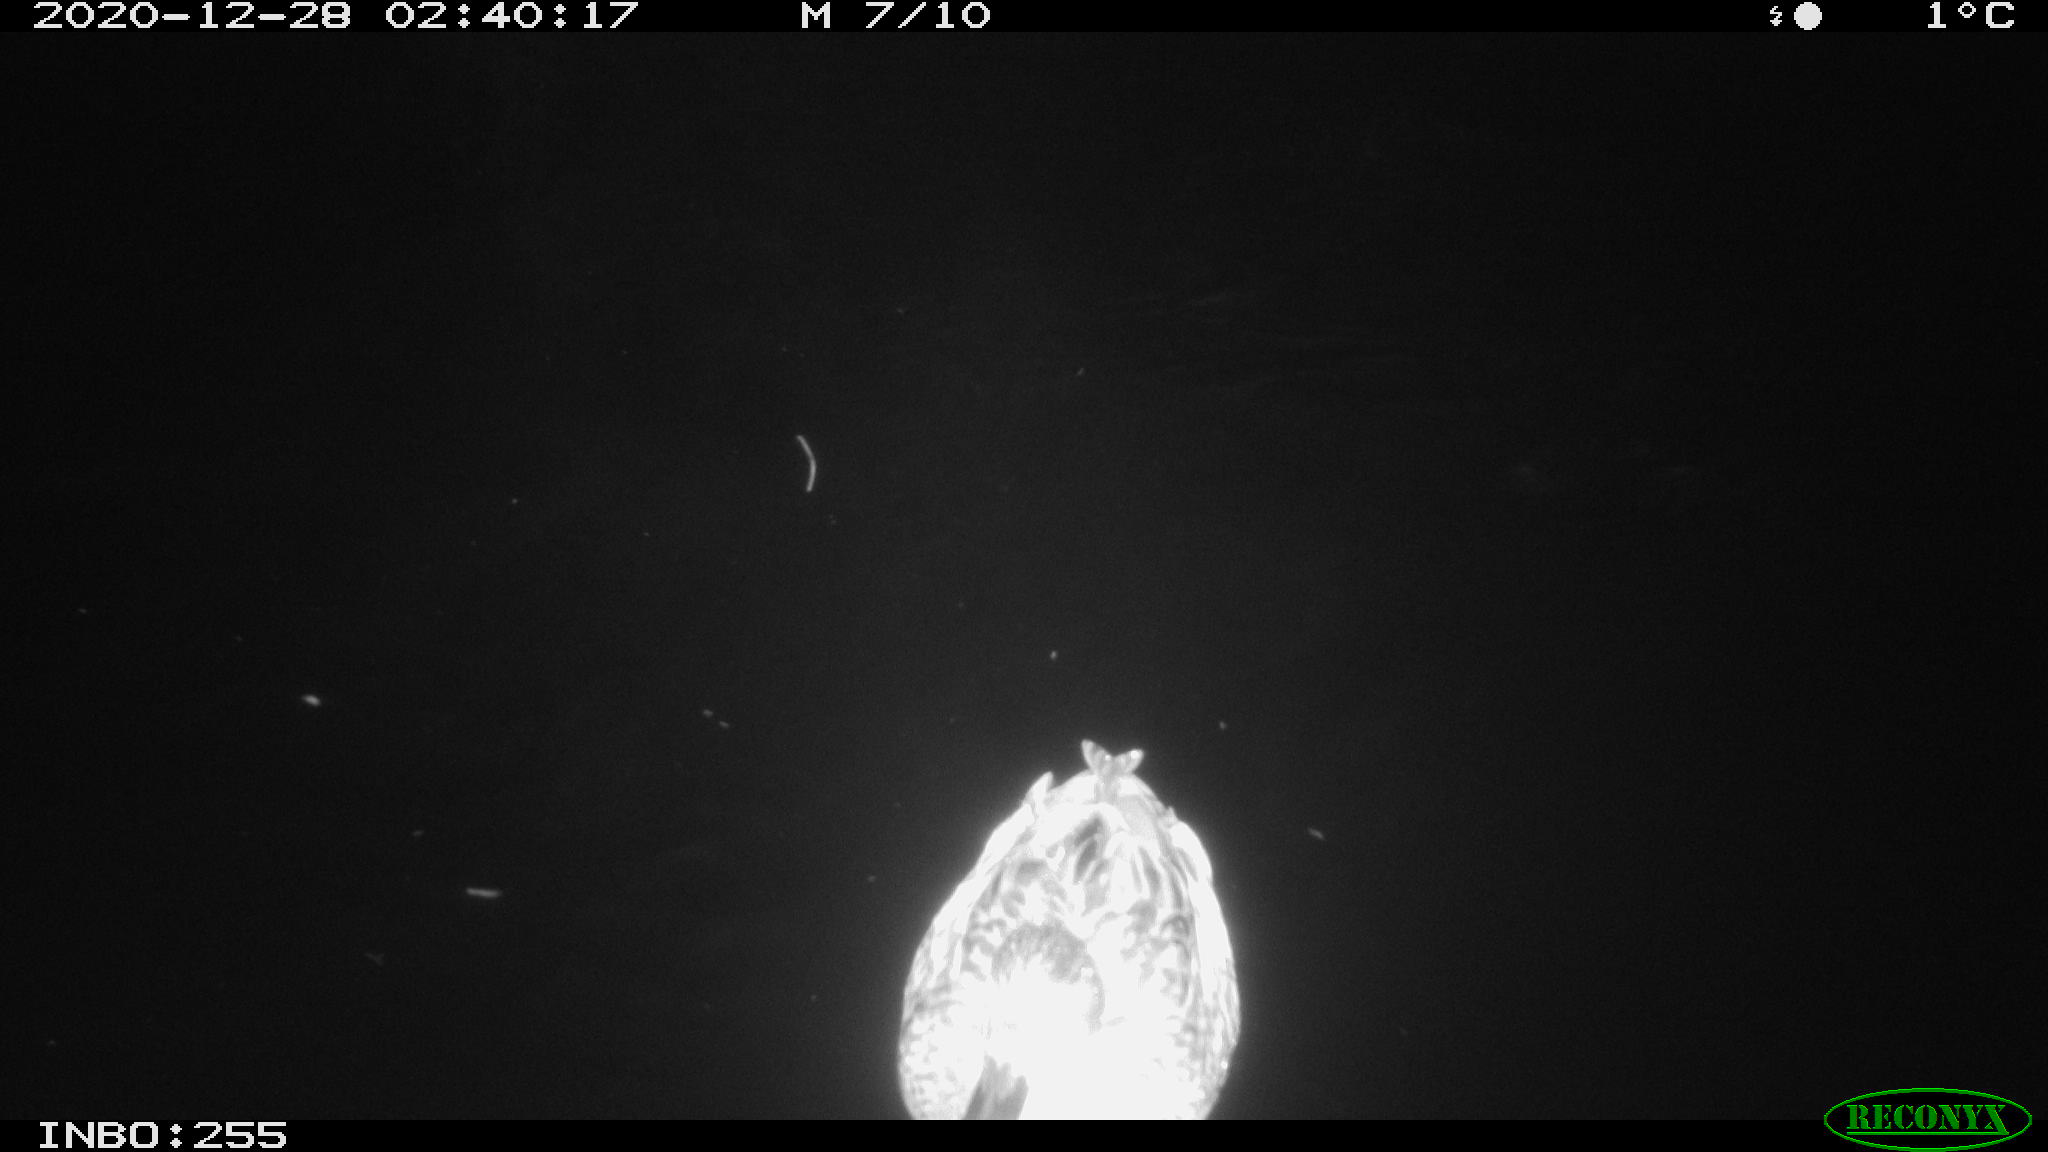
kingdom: Animalia
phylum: Chordata
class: Aves
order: Anseriformes
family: Anatidae
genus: Anas
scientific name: Anas platyrhynchos
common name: Mallard
